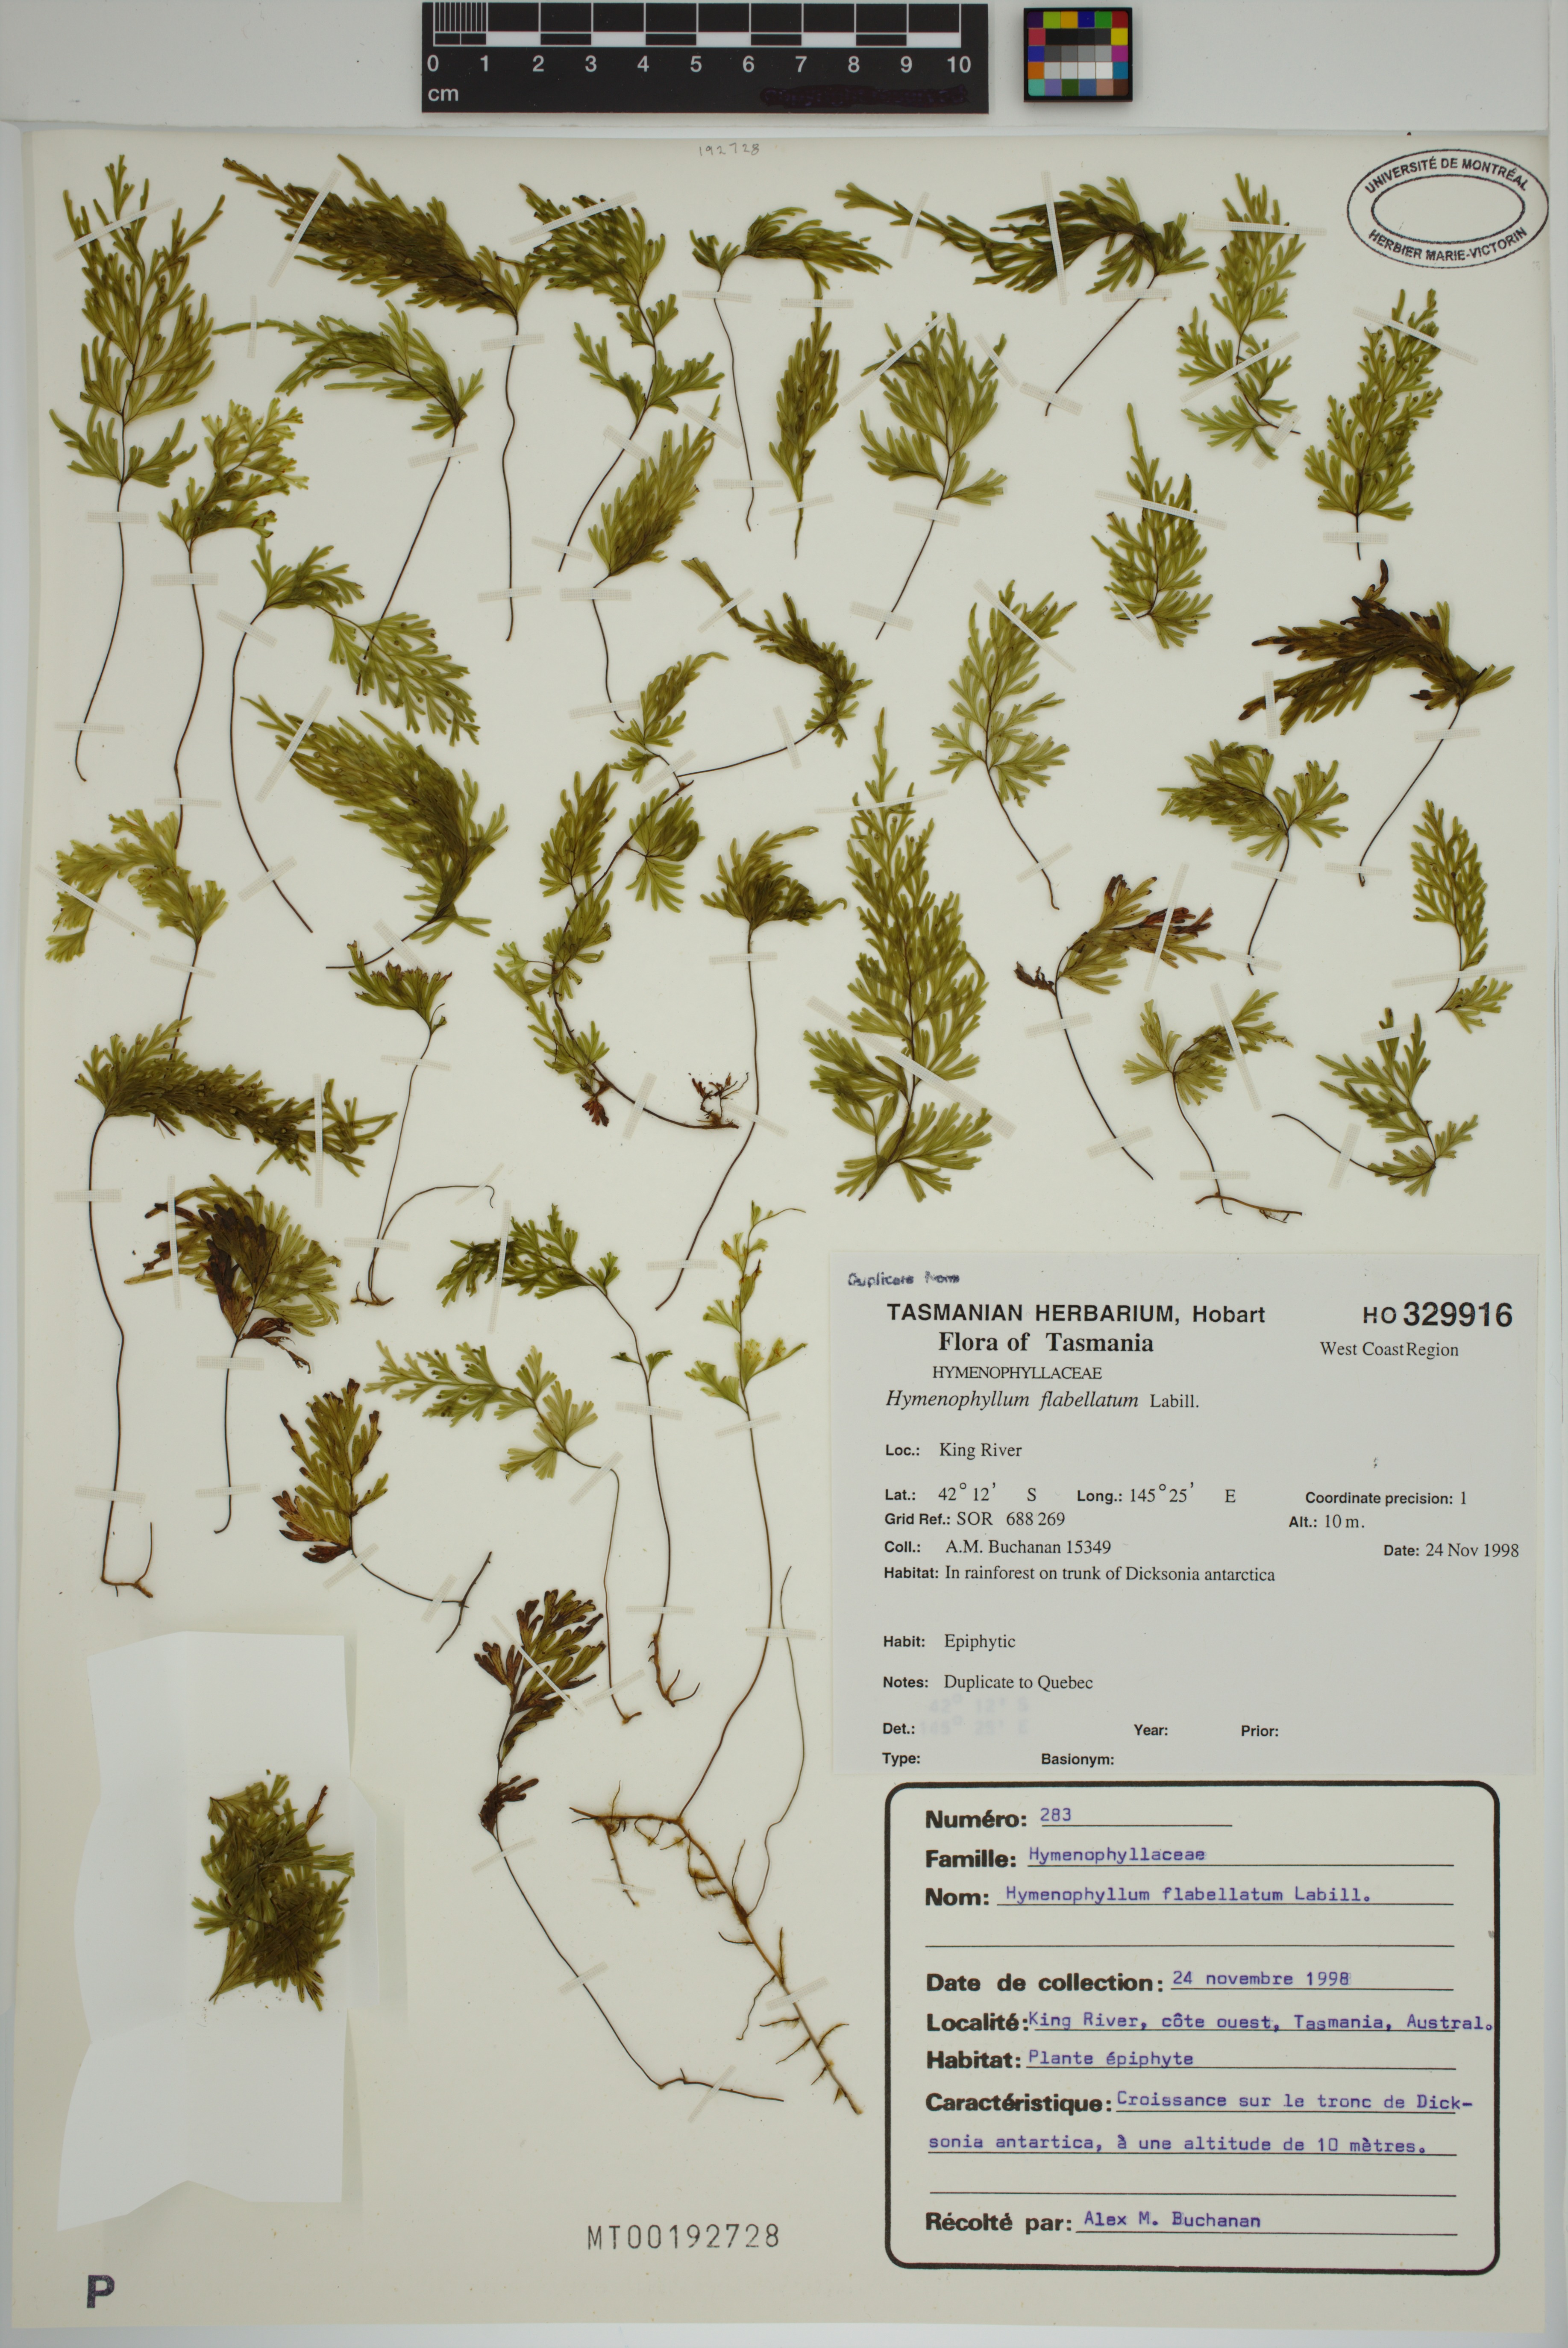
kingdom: Plantae
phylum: Tracheophyta
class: Polypodiopsida
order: Hymenophyllales
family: Hymenophyllaceae
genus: Hymenophyllum
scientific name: Hymenophyllum flabellatum
